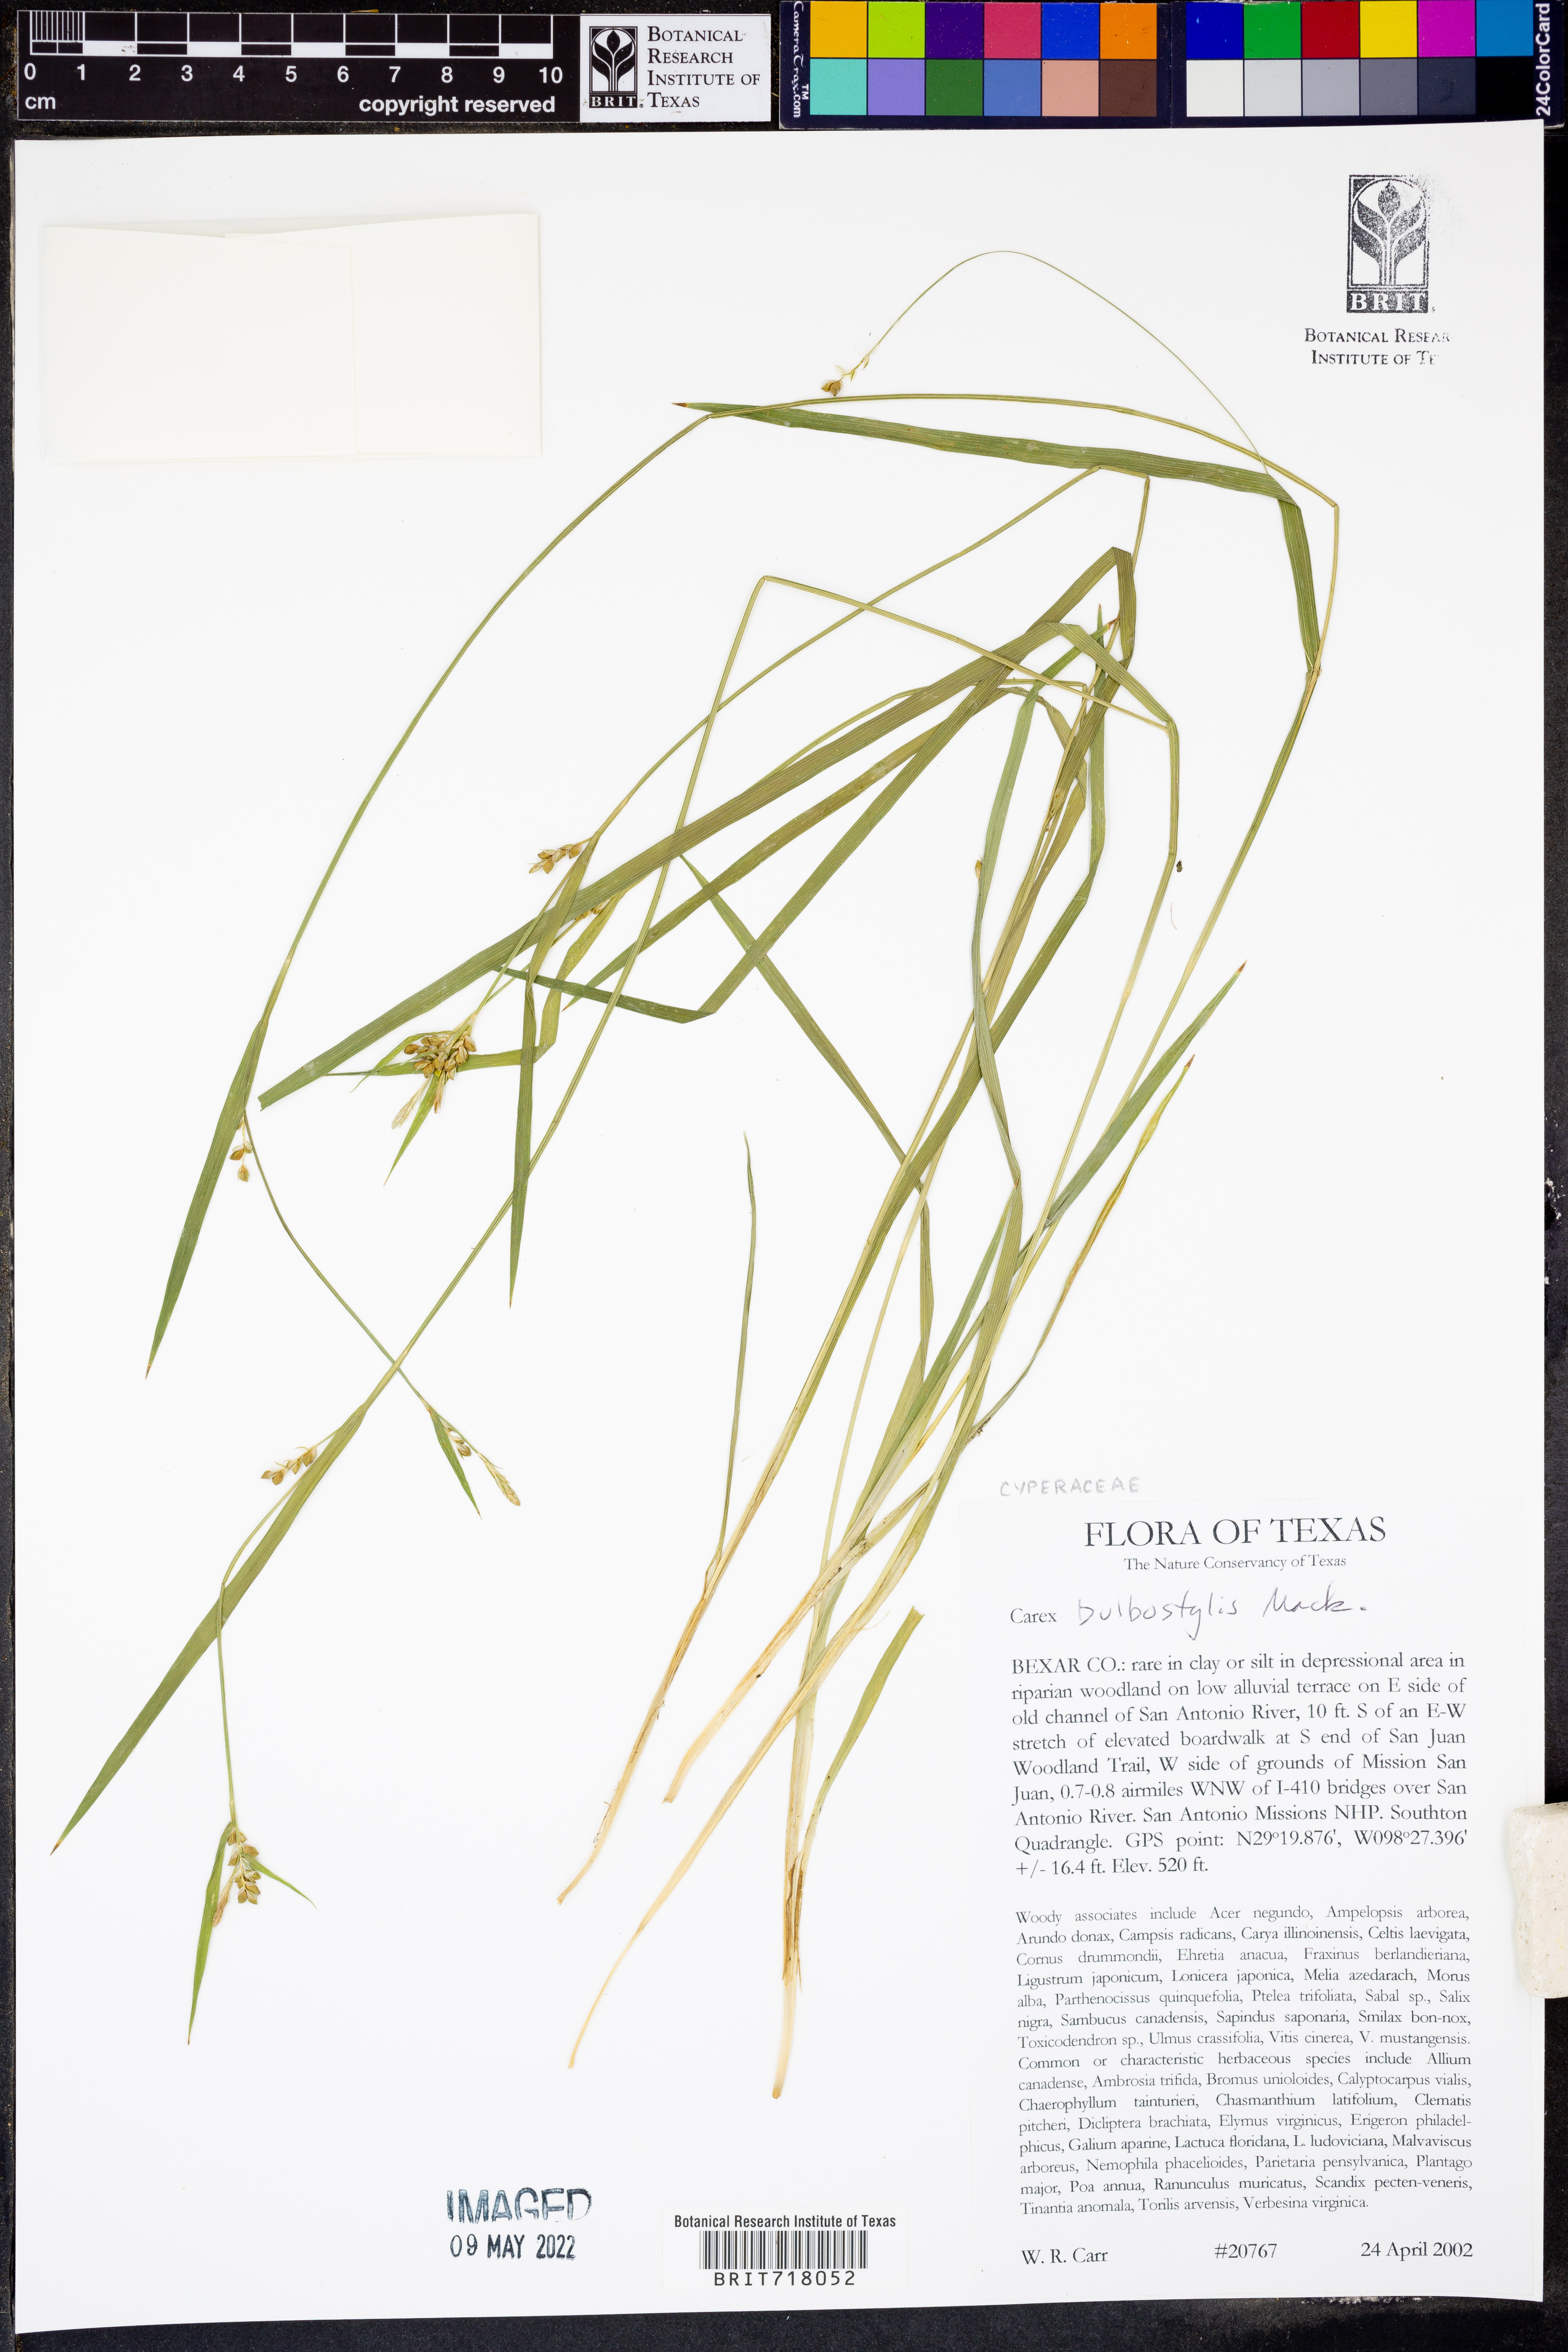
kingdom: Plantae
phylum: Tracheophyta
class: Liliopsida
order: Poales
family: Cyperaceae
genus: Carex
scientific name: Carex bulbostylis
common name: Eastern narrowleaf sedge
